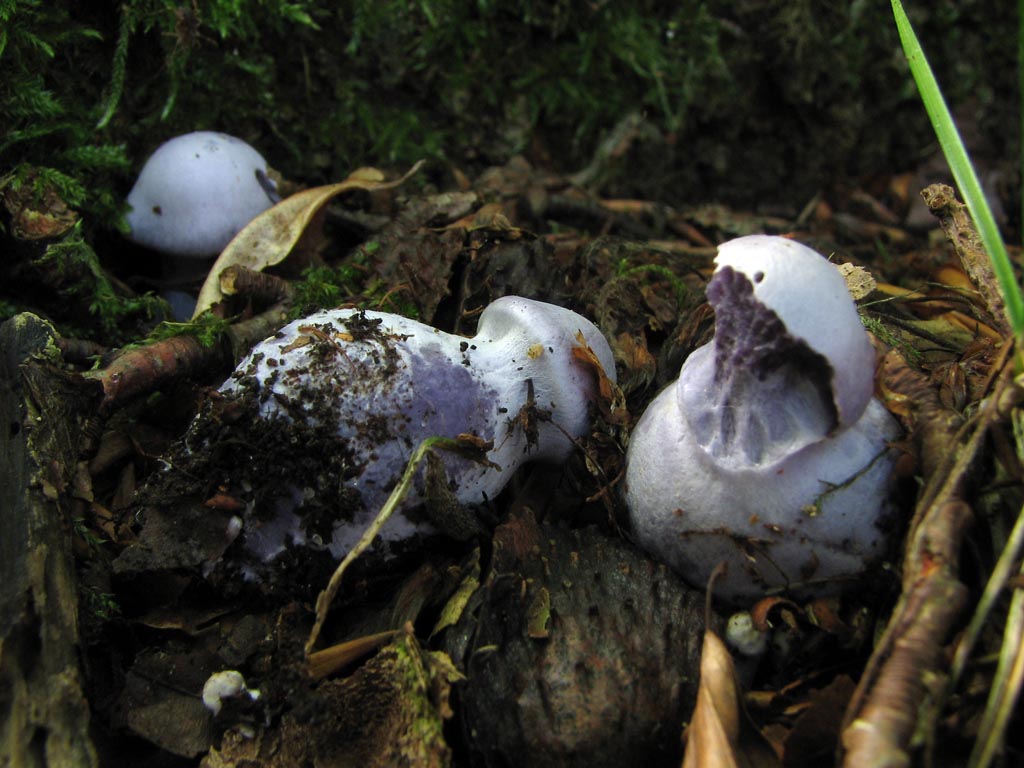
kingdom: Fungi
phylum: Basidiomycota
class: Agaricomycetes
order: Agaricales
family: Cortinariaceae
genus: Cortinarius
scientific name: Cortinarius alboviolaceus
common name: lysviolet slørhat
